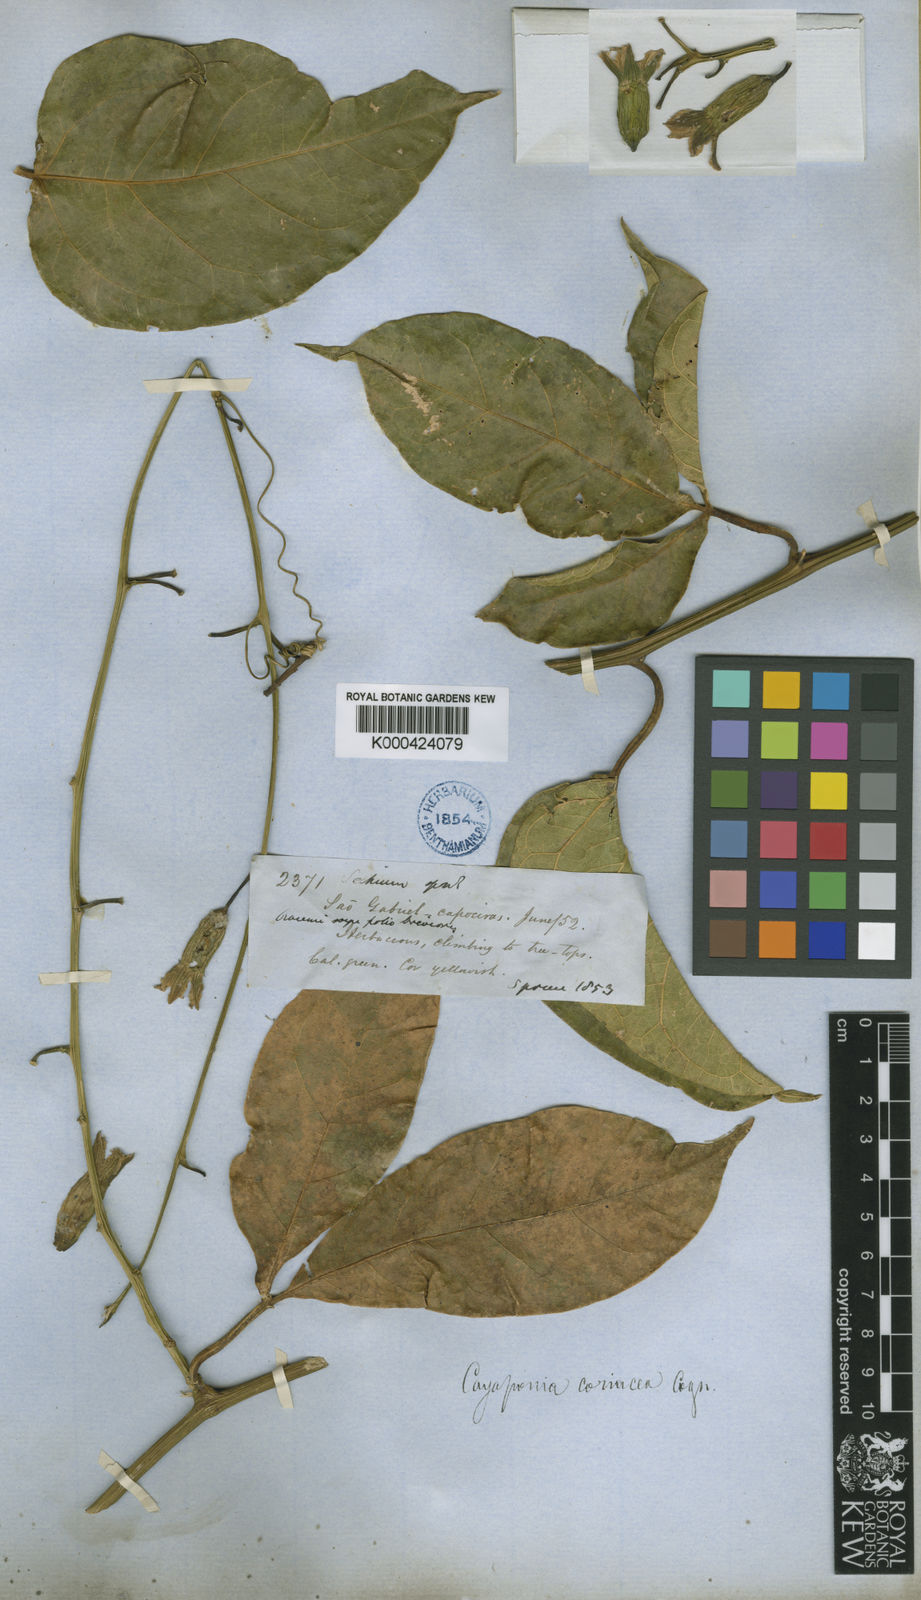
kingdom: Plantae
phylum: Tracheophyta
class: Magnoliopsida
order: Cucurbitales
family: Cucurbitaceae
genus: Cayaponia
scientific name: Cayaponia coriacea
